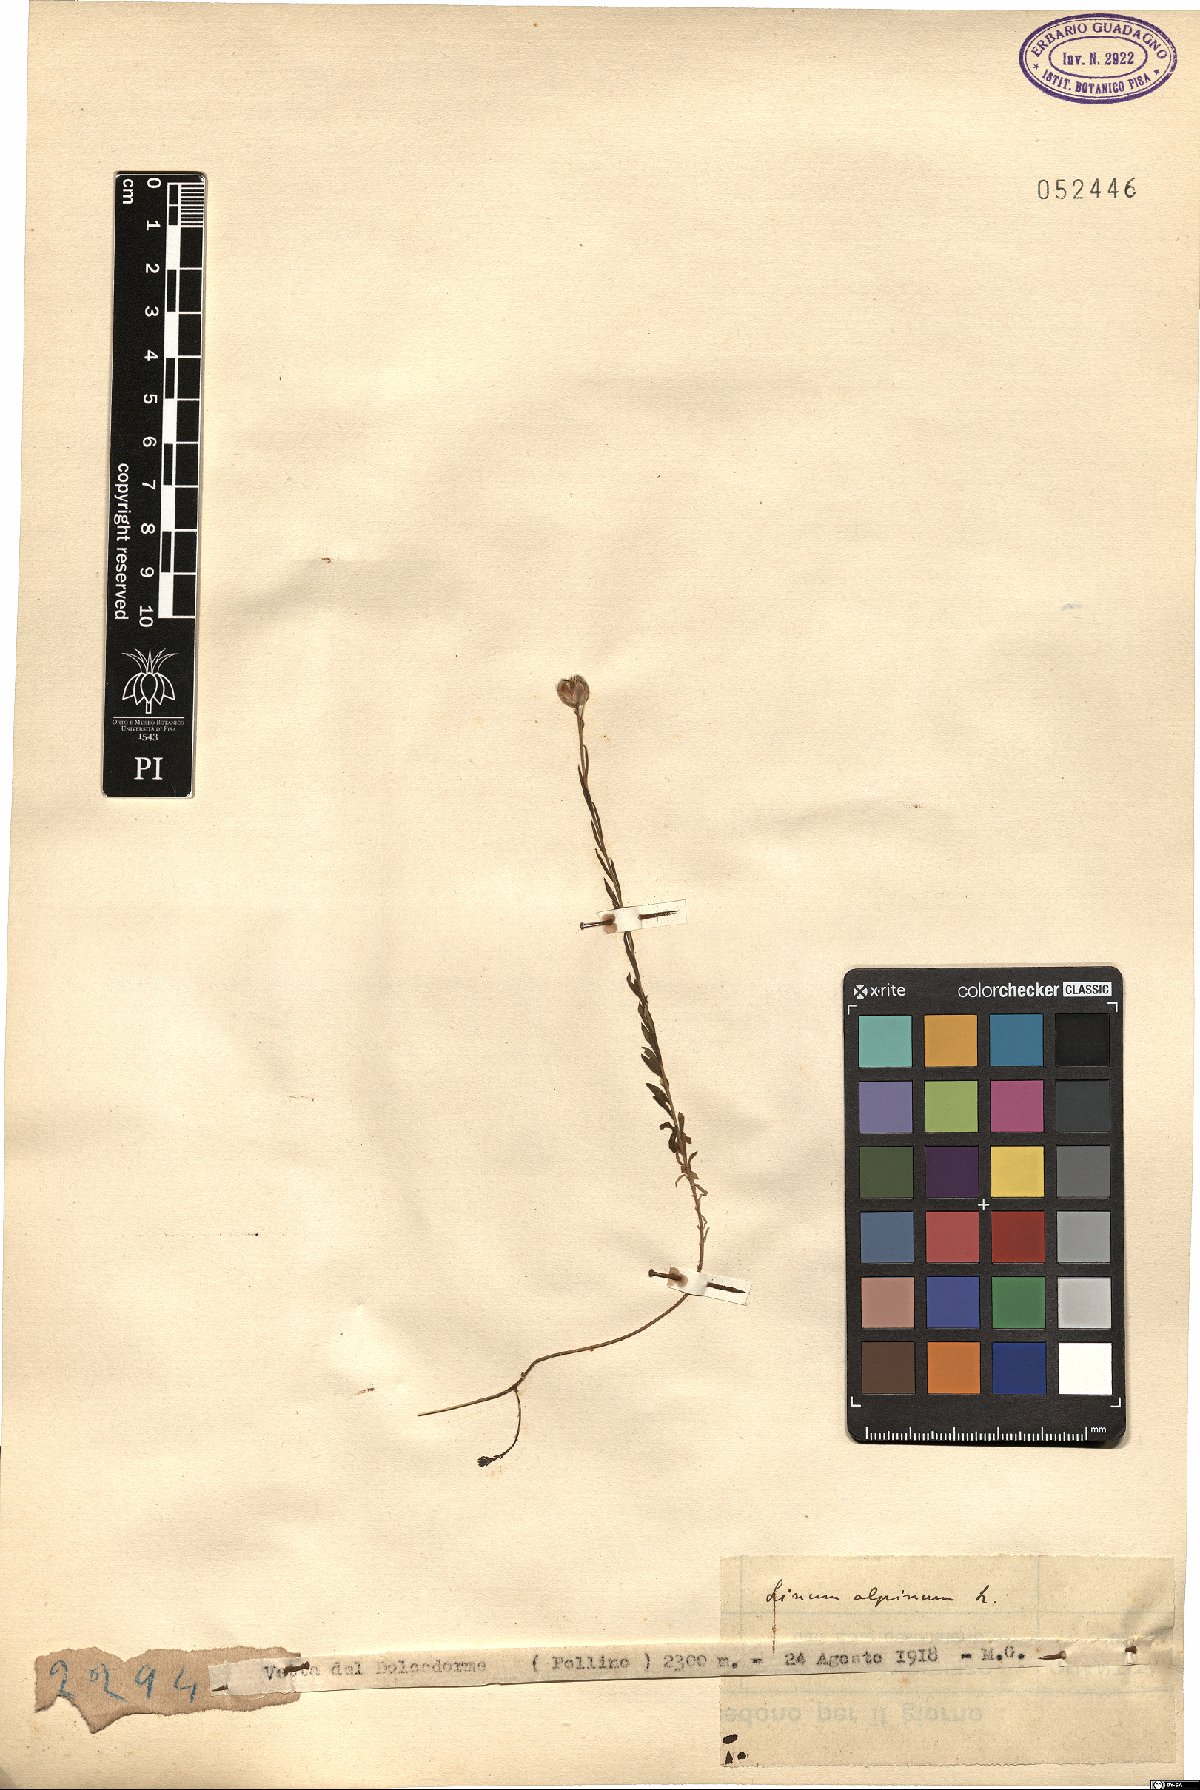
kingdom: Plantae
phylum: Tracheophyta
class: Magnoliopsida
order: Malpighiales
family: Linaceae
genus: Linum
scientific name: Linum alpinum
